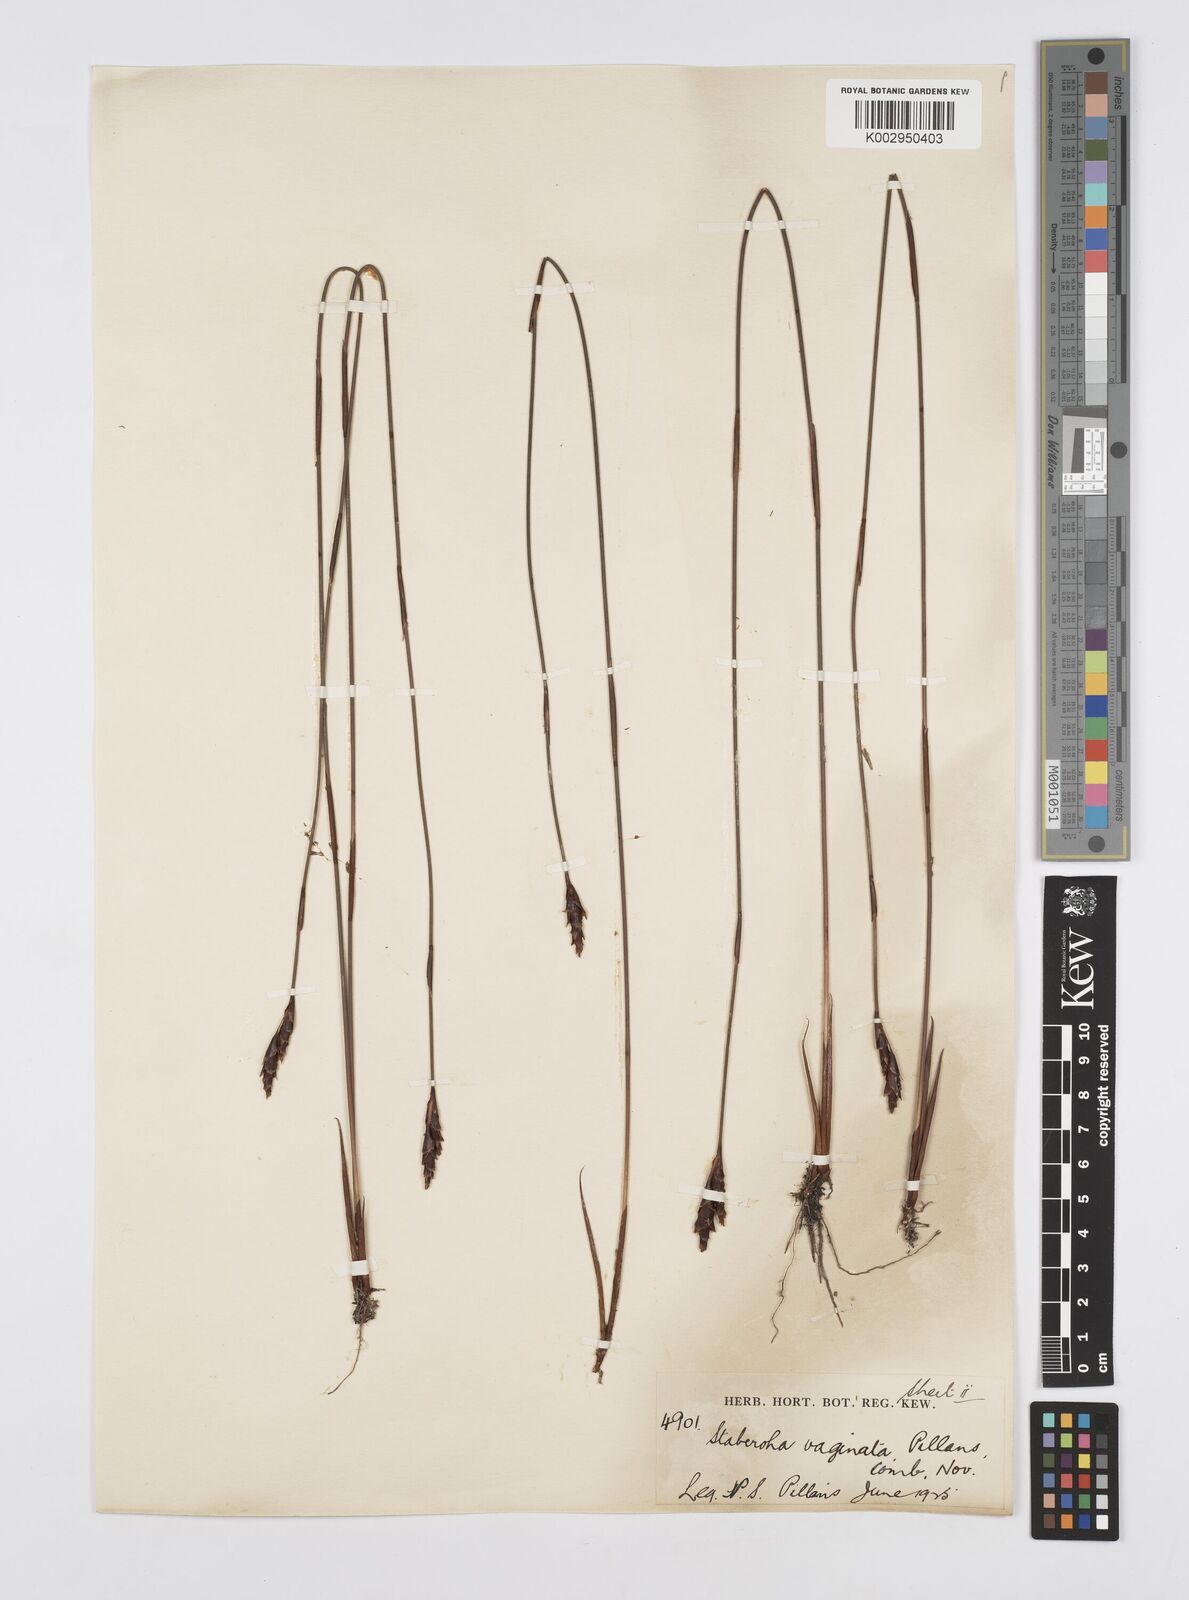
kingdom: Plantae
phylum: Tracheophyta
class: Liliopsida
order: Poales
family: Restionaceae
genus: Staberoha
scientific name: Staberoha vaginata
